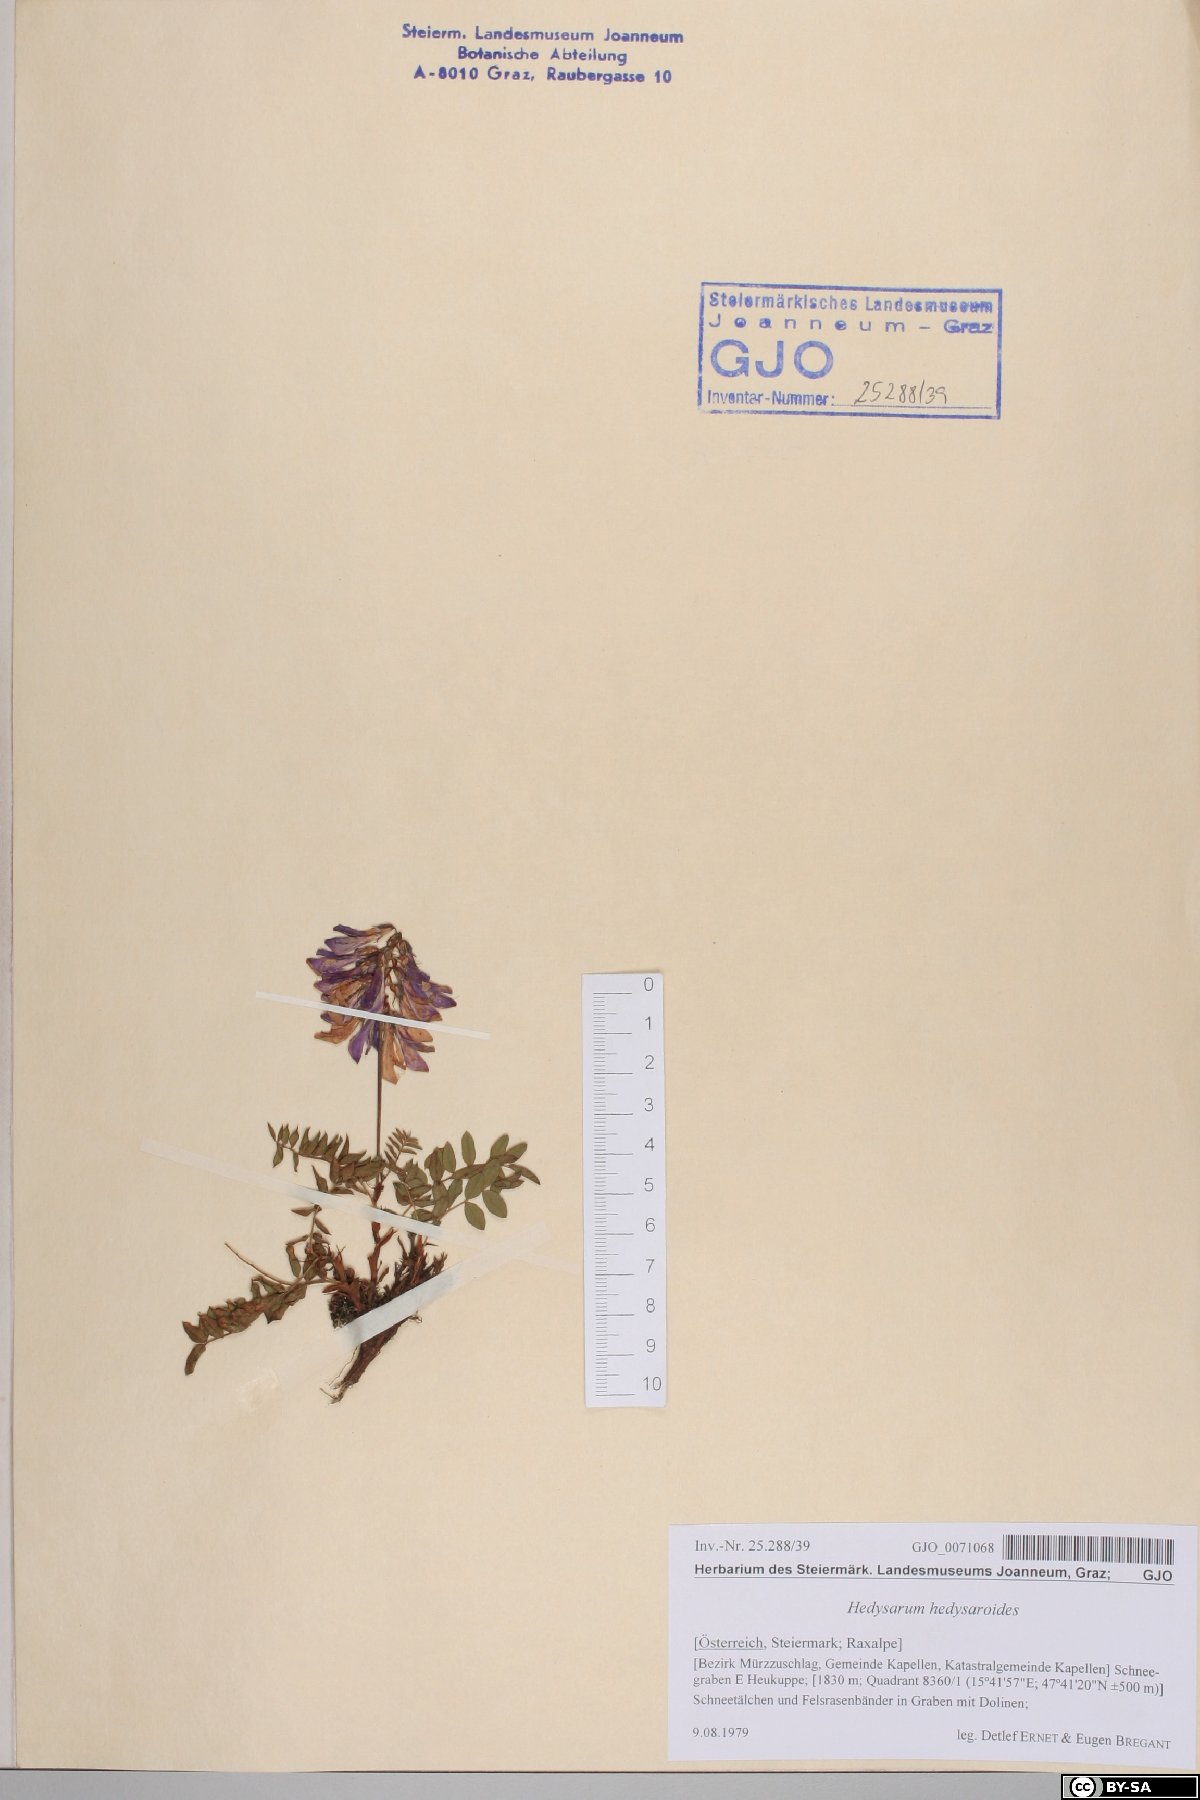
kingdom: Plantae
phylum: Tracheophyta
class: Magnoliopsida
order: Fabales
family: Fabaceae
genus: Hedysarum
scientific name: Hedysarum hedysaroides
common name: Alpine french-honeysuckle
